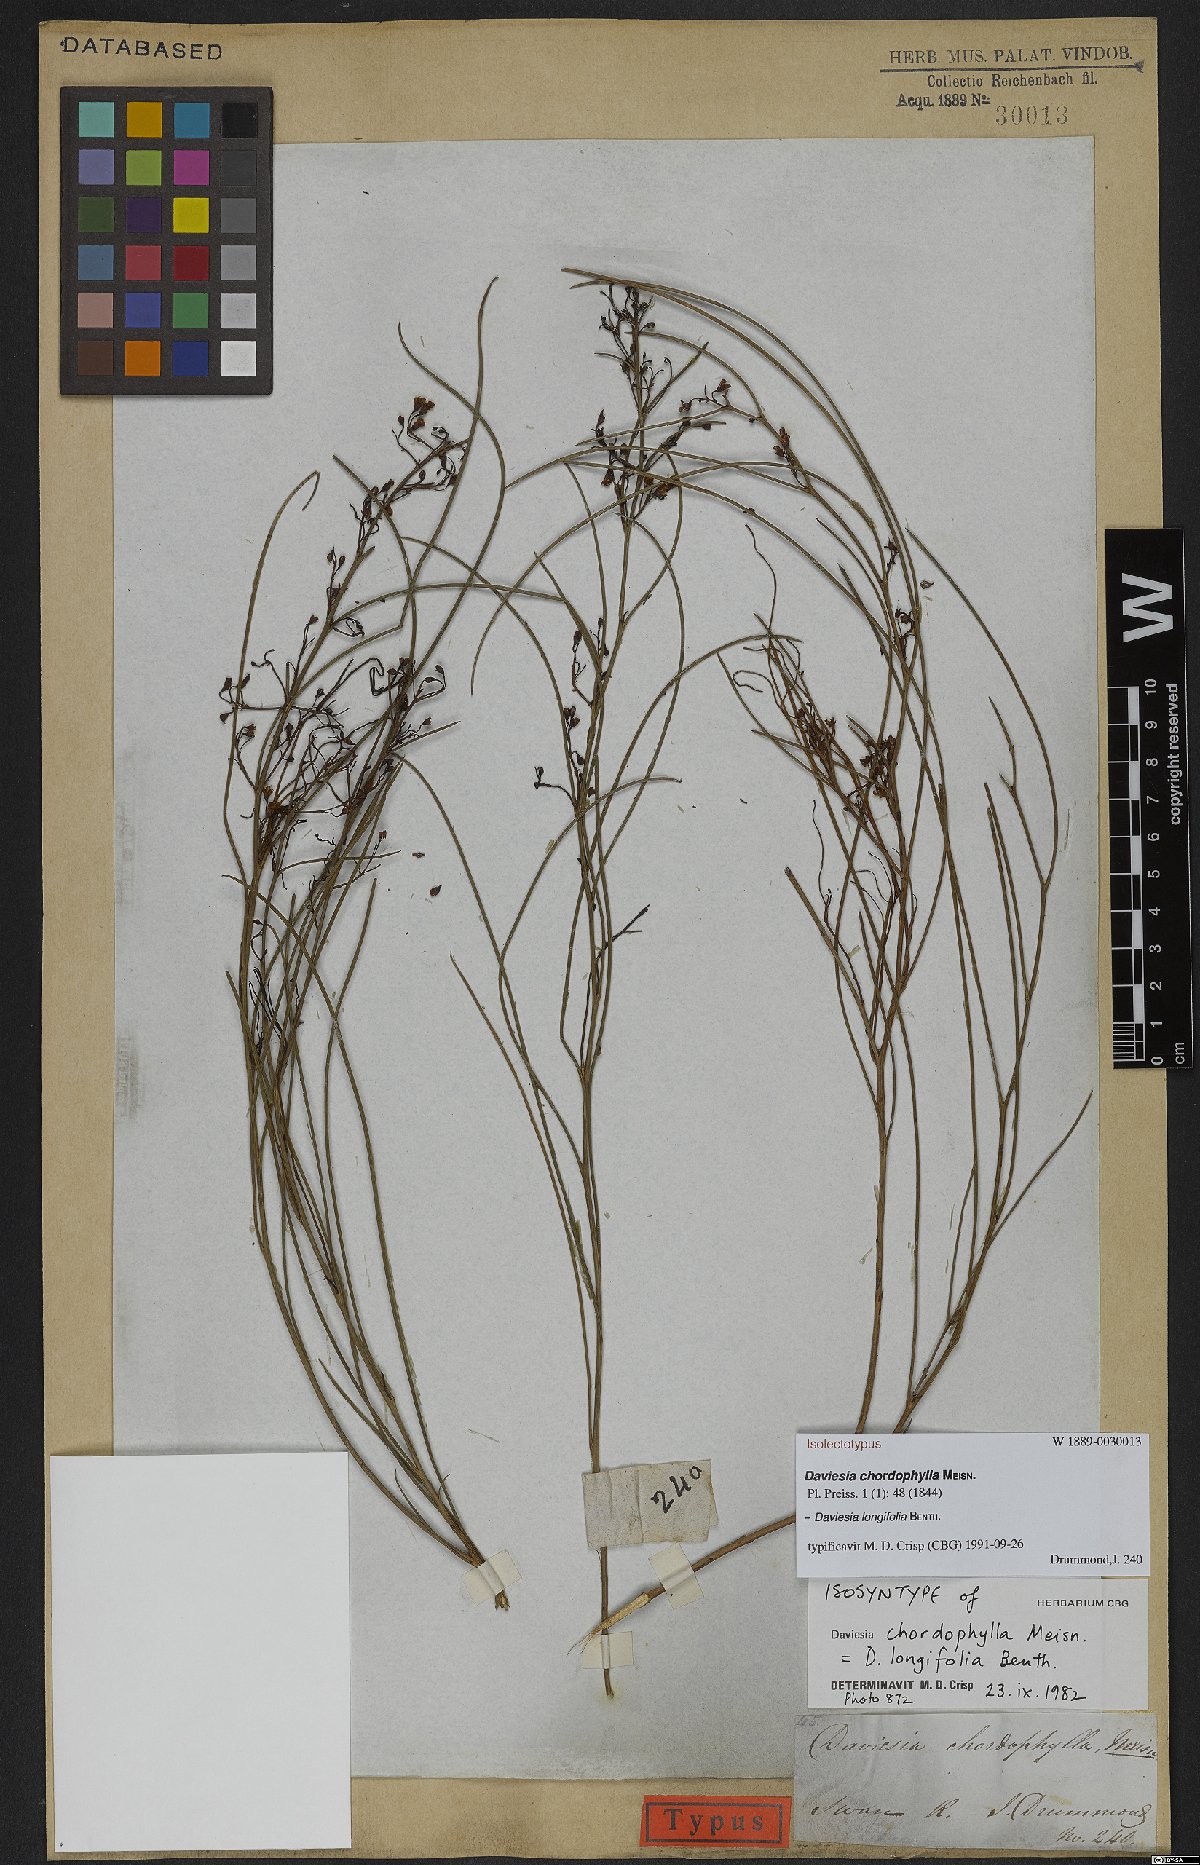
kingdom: Plantae
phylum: Tracheophyta
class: Magnoliopsida
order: Fabales
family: Fabaceae
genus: Daviesia
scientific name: Daviesia longifolia
